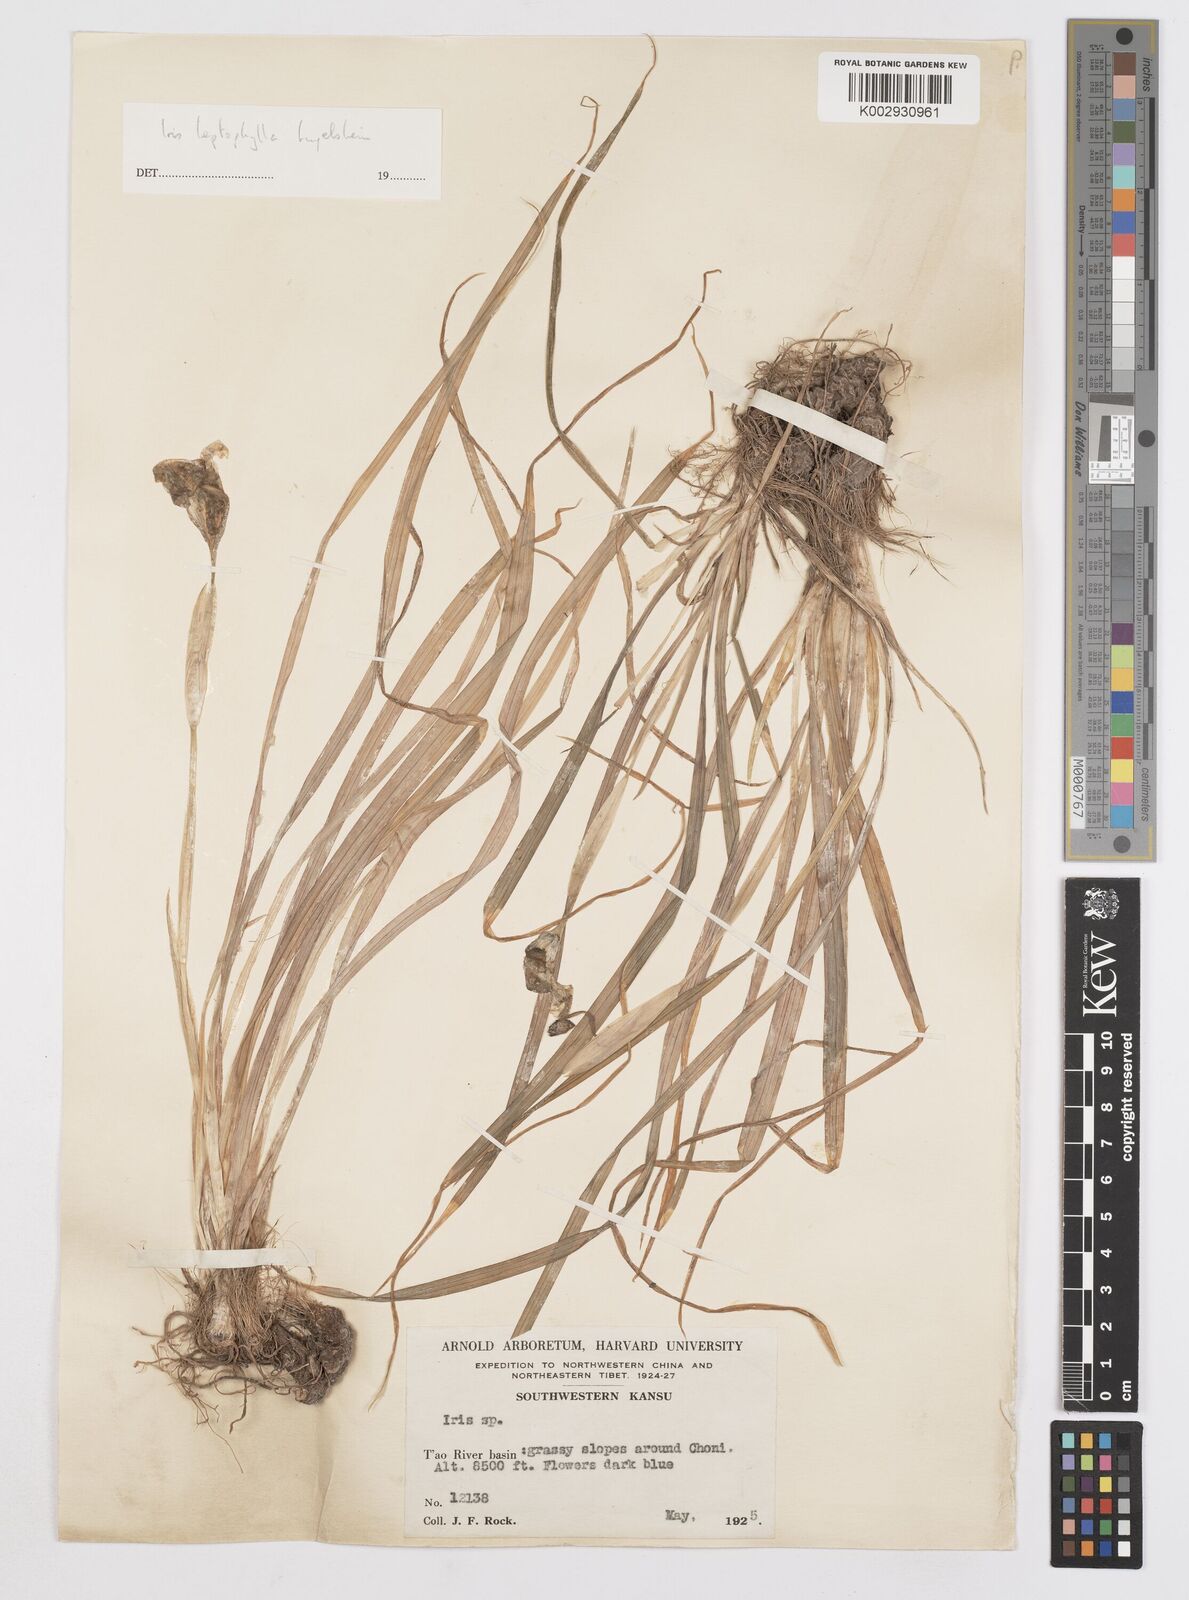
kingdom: Plantae
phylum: Tracheophyta
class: Liliopsida
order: Asparagales
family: Iridaceae
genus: Iris
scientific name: Iris leptophylla
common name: Thin-leaf iris
